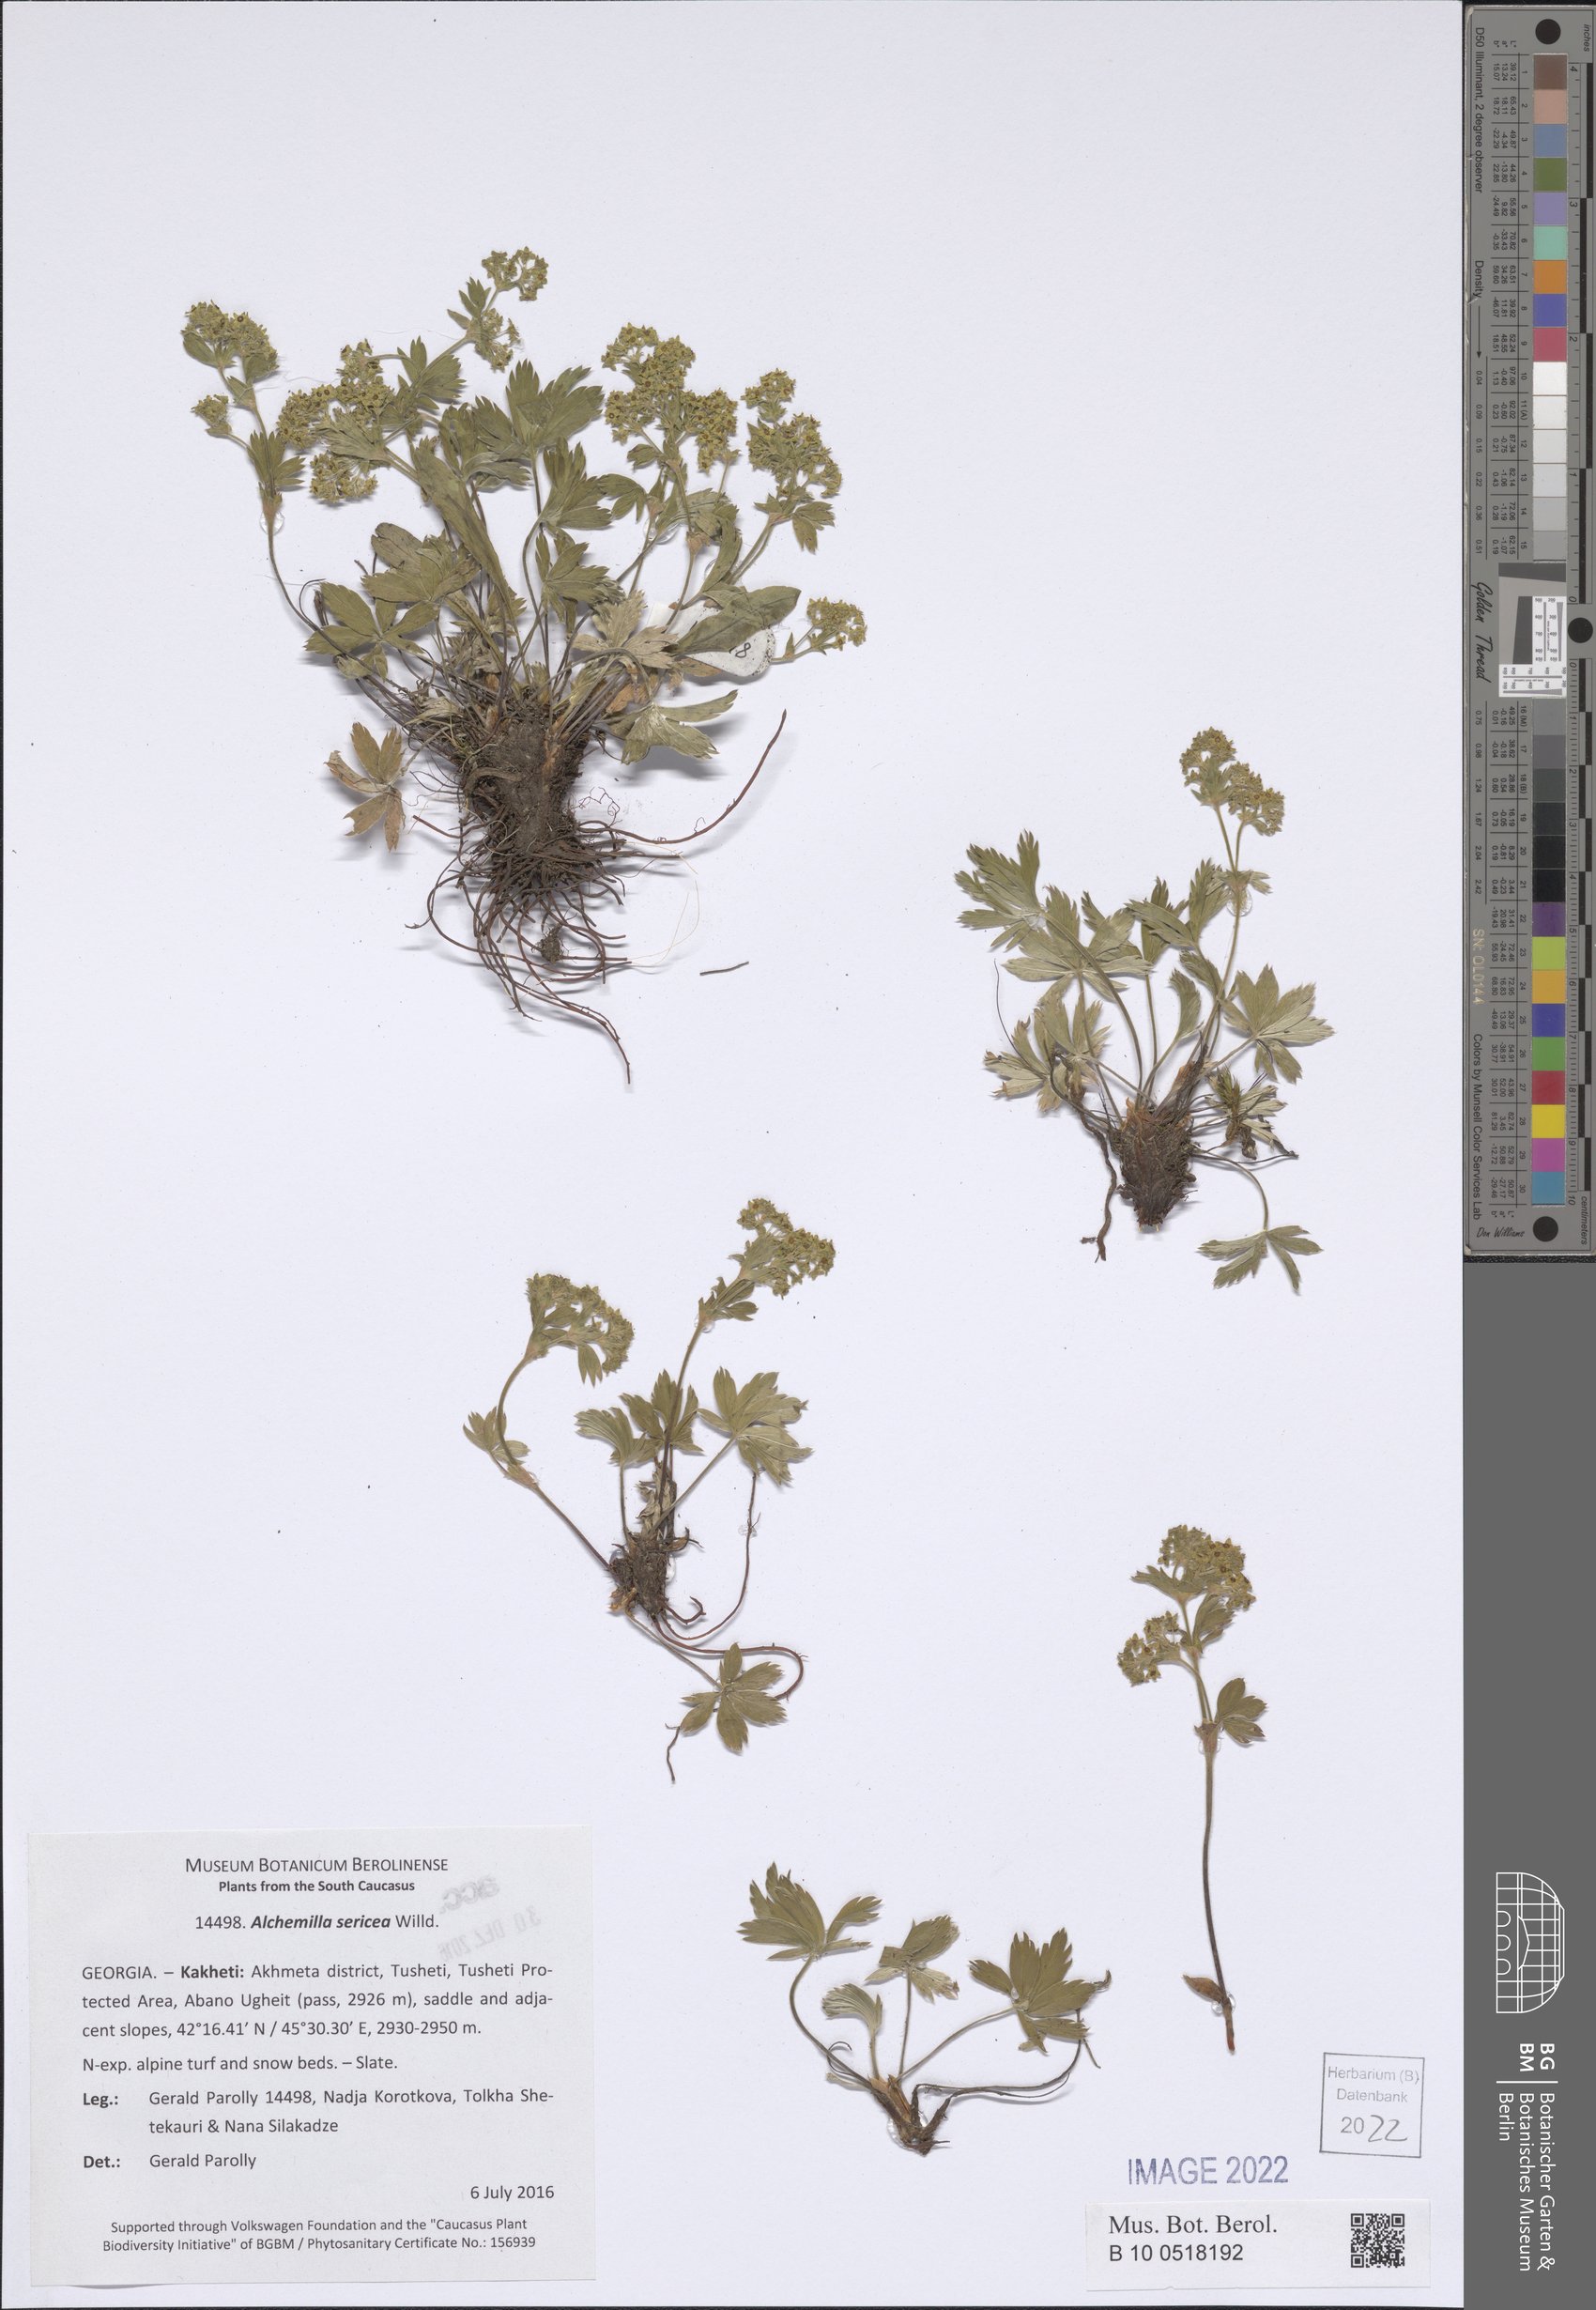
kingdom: Plantae
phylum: Tracheophyta
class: Magnoliopsida
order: Rosales
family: Rosaceae
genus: Alchemilla
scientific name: Alchemilla sericea
